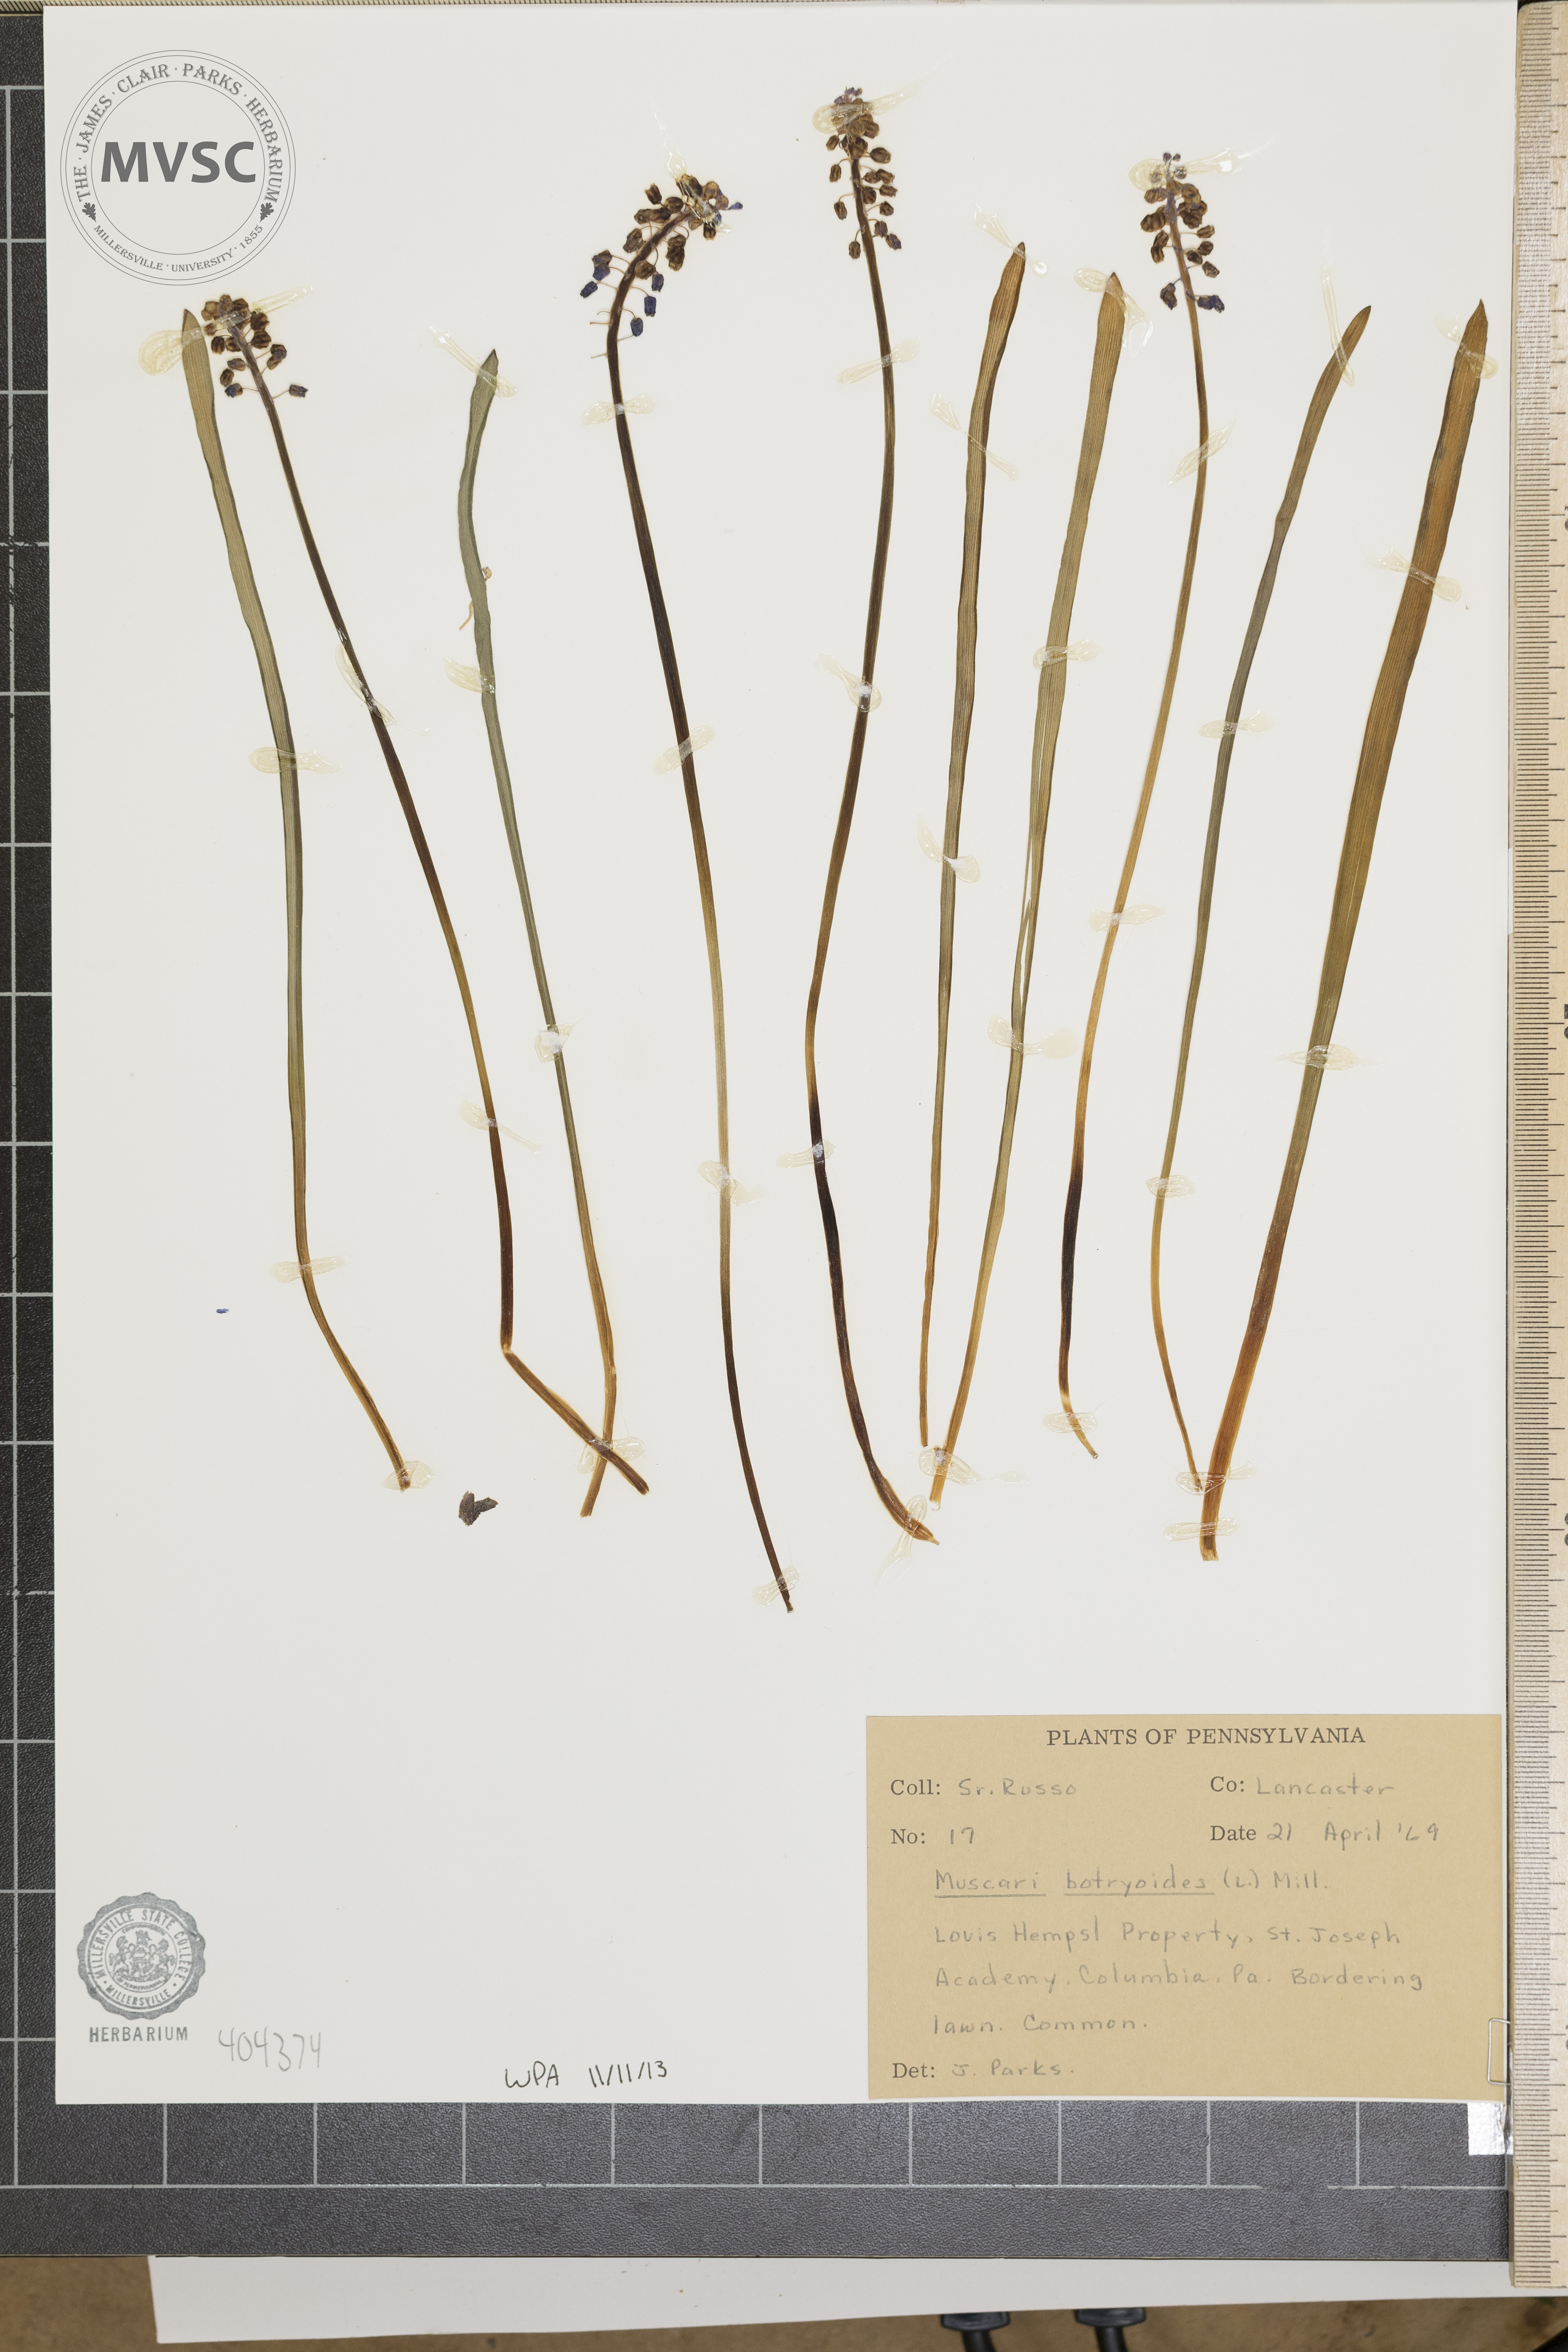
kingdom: Plantae
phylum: Tracheophyta
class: Liliopsida
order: Asparagales
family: Asparagaceae
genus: Muscari
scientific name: Muscari botryoides
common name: Compact grape-hyacinth
